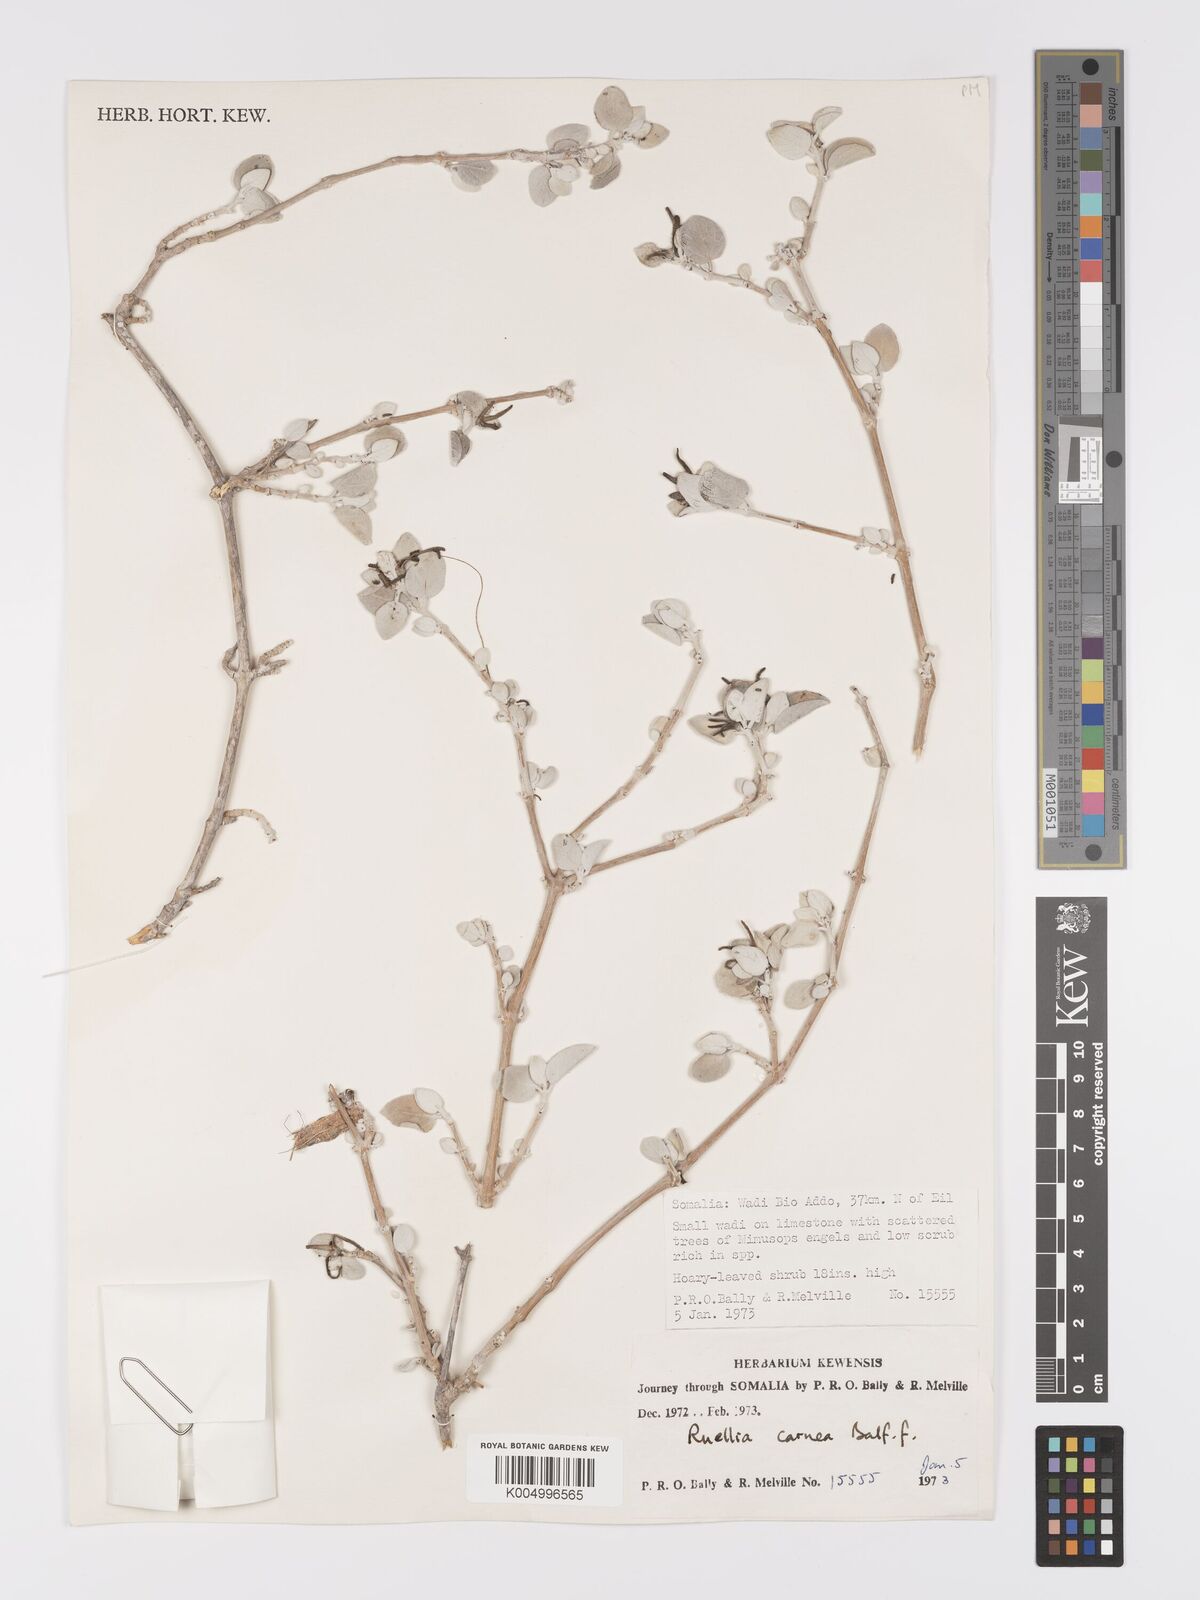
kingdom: Plantae
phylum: Tracheophyta
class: Magnoliopsida
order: Lamiales
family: Acanthaceae
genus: Ruellia
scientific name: Ruellia carnea
